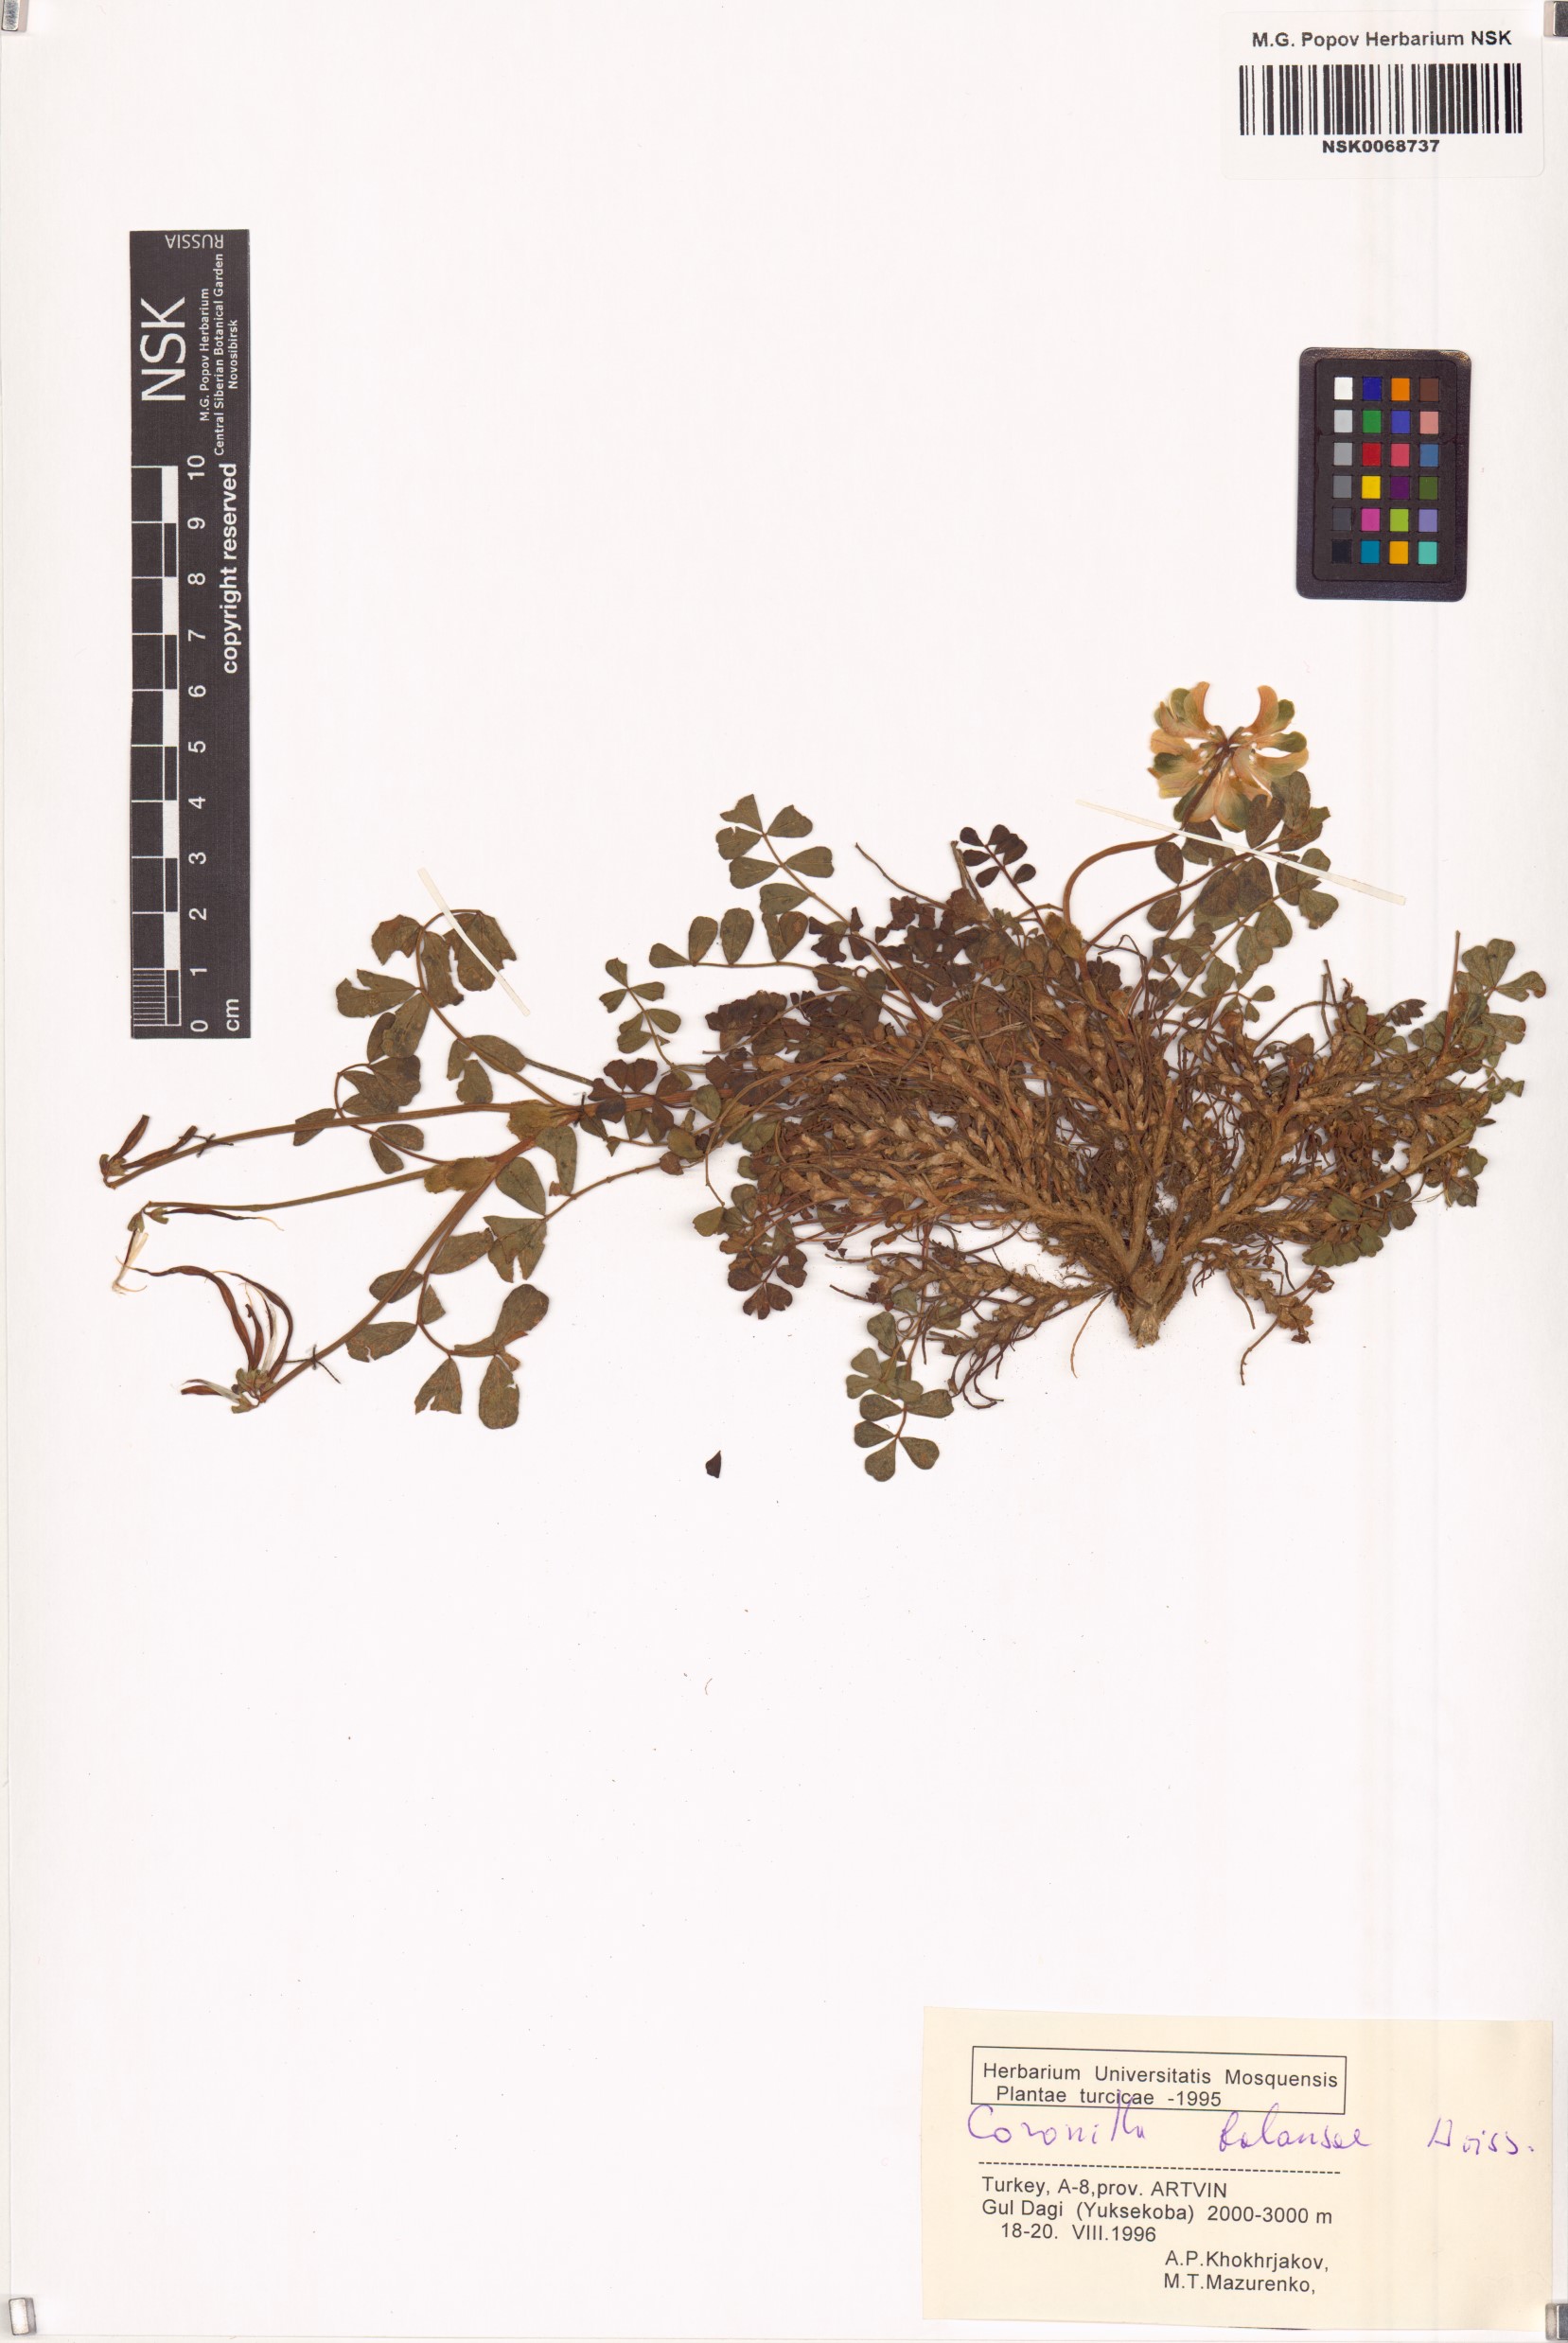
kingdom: Plantae
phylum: Tracheophyta
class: Magnoliopsida
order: Fabales
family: Fabaceae
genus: Coronilla
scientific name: Coronilla orientalis
